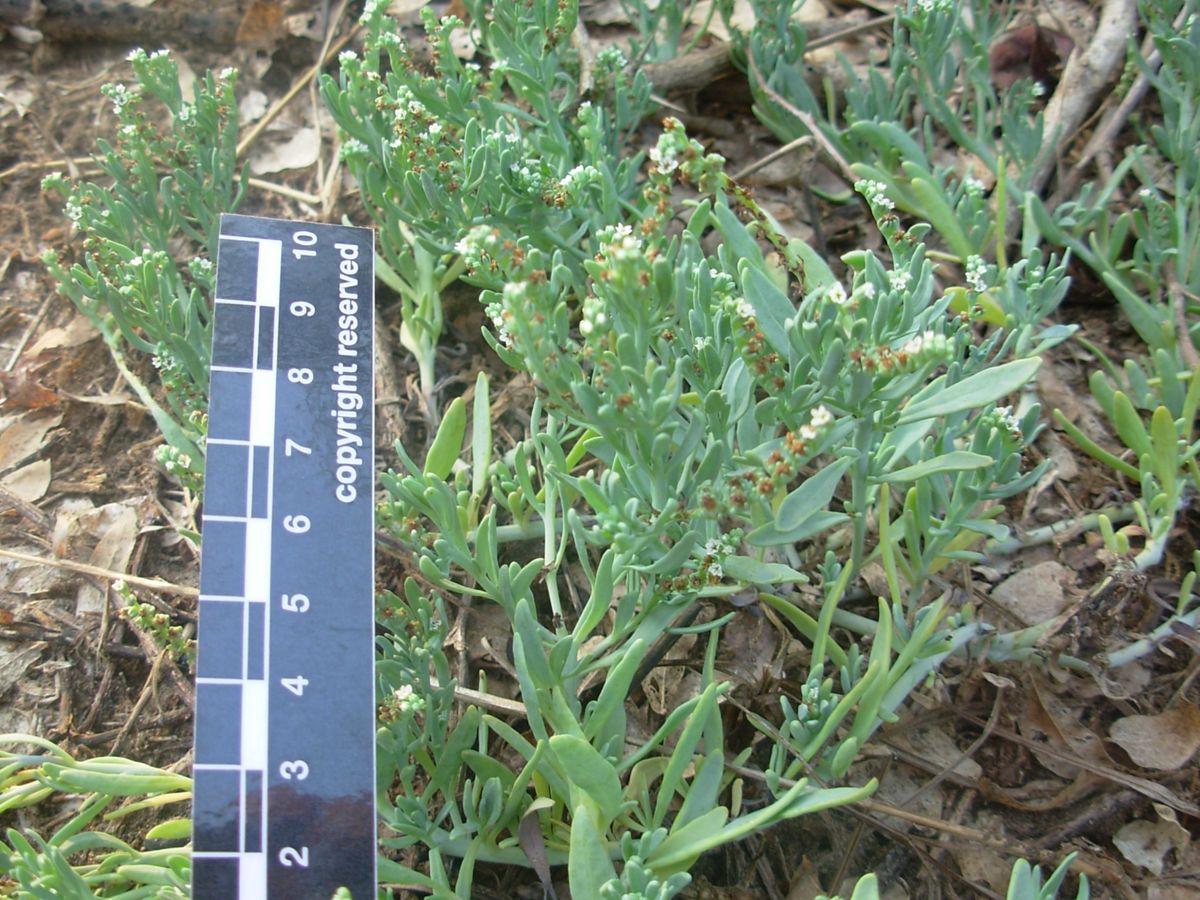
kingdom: Plantae
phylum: Tracheophyta
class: Magnoliopsida
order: Boraginales
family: Heliotropiaceae
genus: Heliotropium
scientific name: Heliotropium curassavicum
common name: Seaside heliotrope
